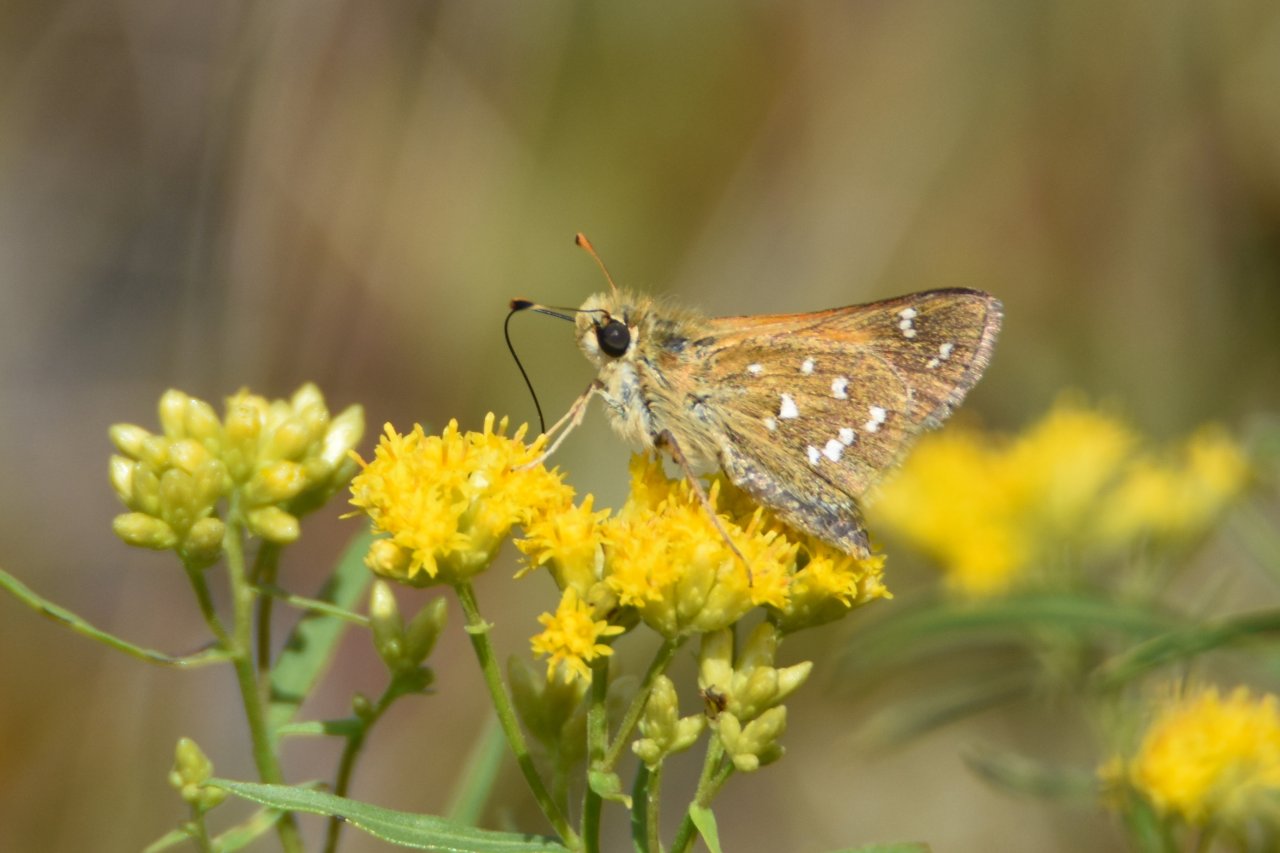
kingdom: Animalia
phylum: Arthropoda
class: Insecta
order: Lepidoptera
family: Hesperiidae
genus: Hesperia
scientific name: Hesperia comma
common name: Common Branded Skipper
